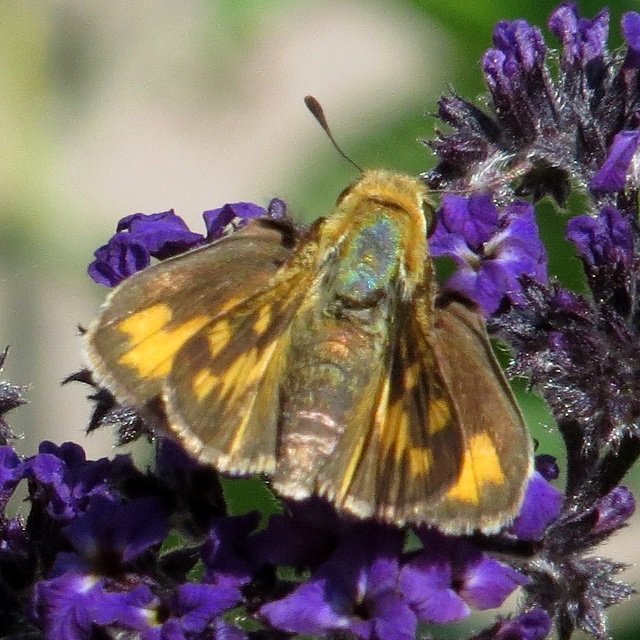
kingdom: Animalia
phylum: Arthropoda
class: Insecta
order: Lepidoptera
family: Hesperiidae
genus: Hylephila
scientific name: Hylephila phyleus
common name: Fiery Skipper
